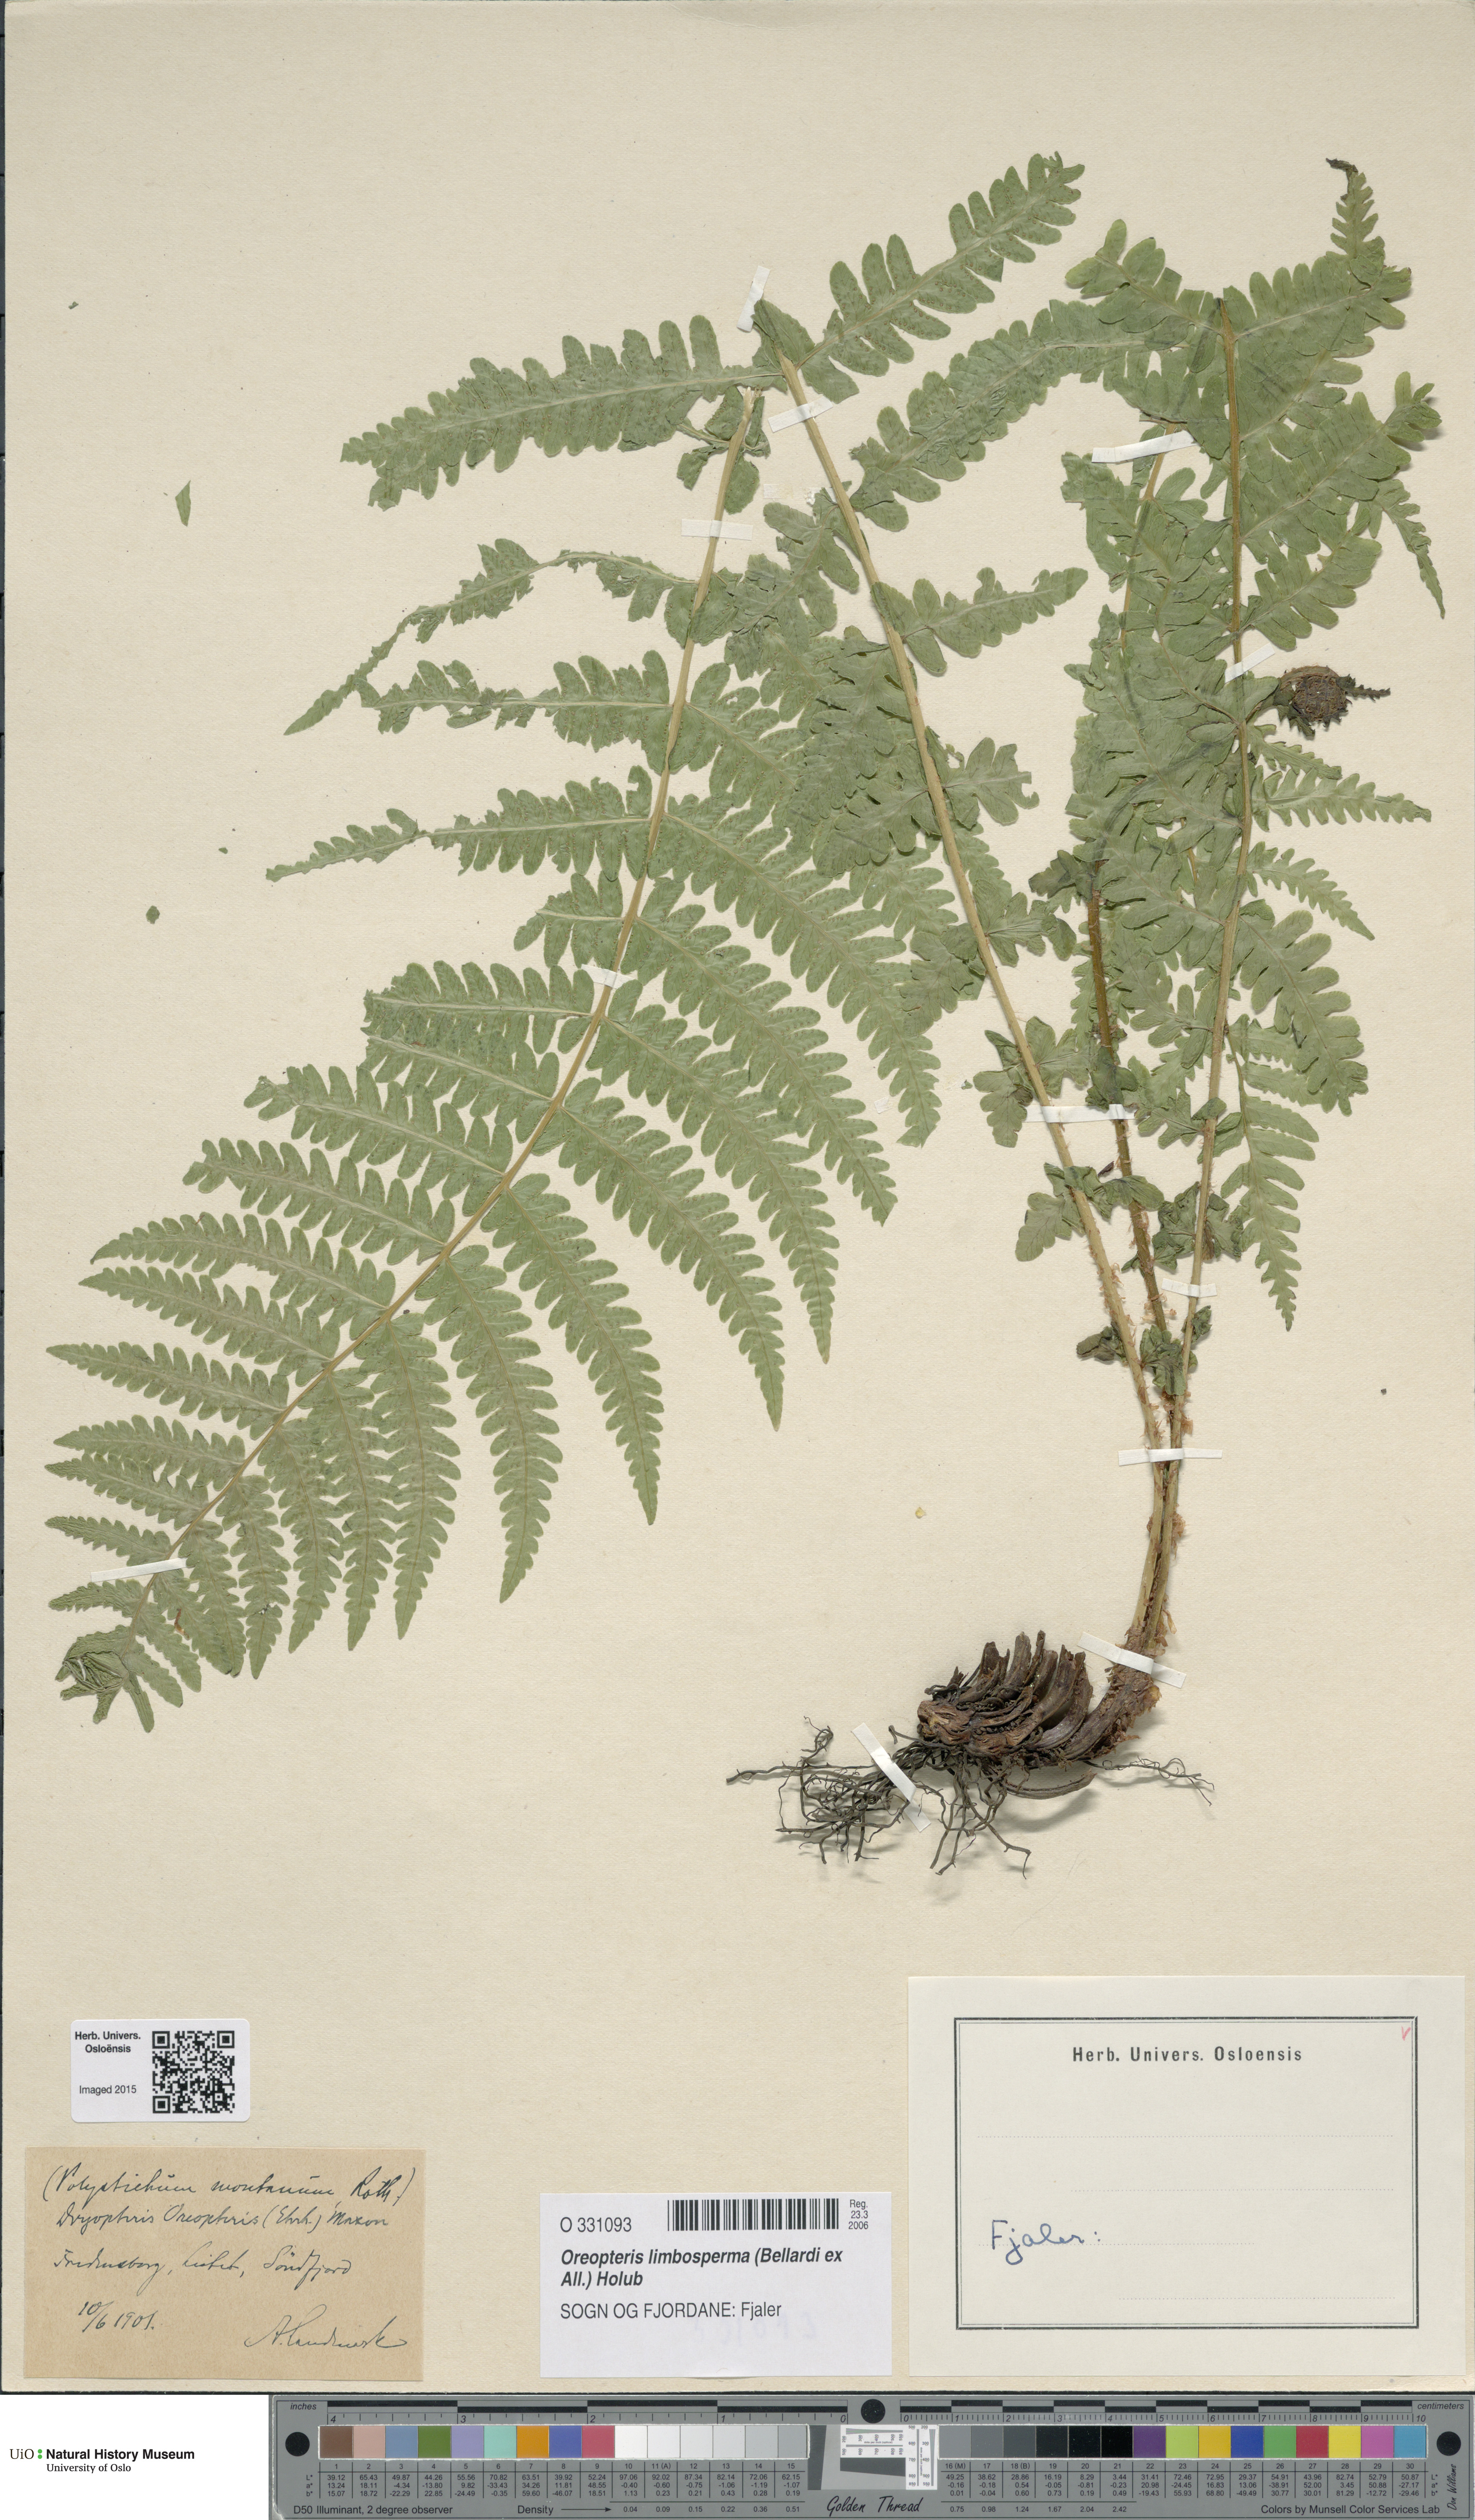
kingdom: Plantae
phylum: Tracheophyta
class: Polypodiopsida
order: Polypodiales
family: Thelypteridaceae
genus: Oreopteris
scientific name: Oreopteris limbosperma
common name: Lemon-scented fern
